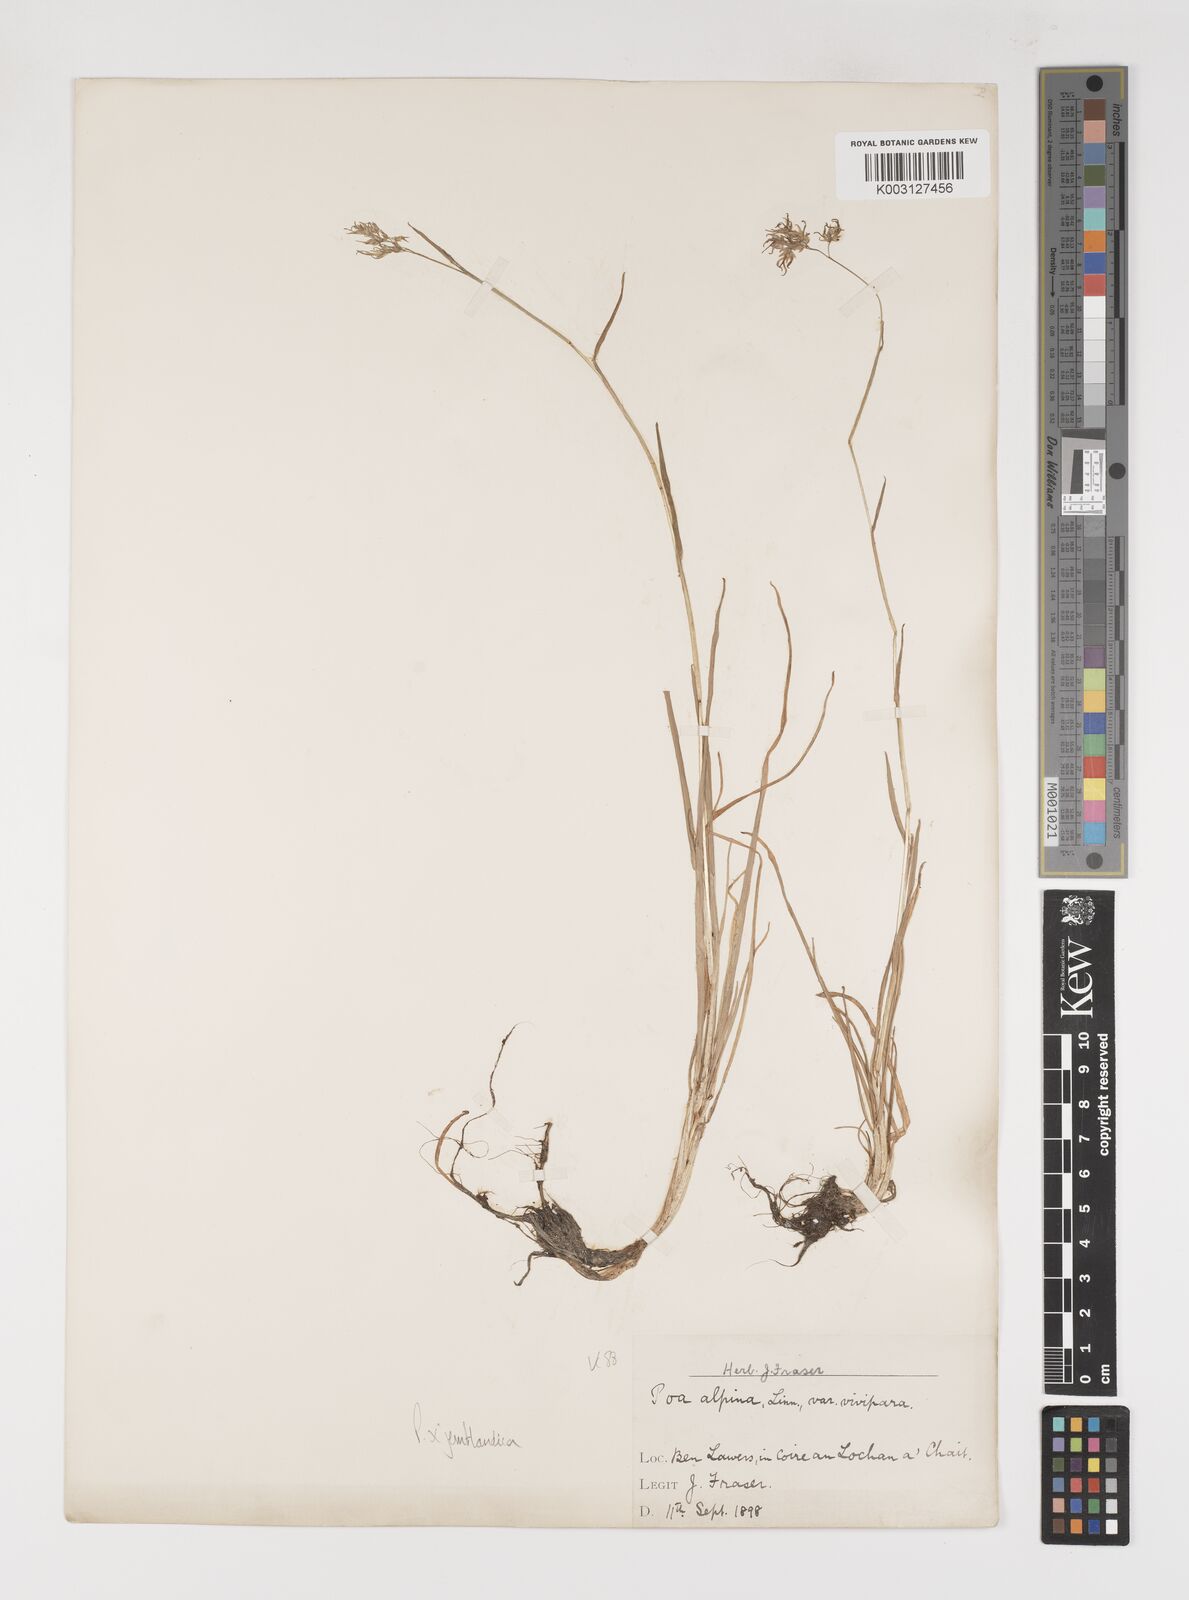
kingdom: Plantae
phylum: Tracheophyta
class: Liliopsida
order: Poales
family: Poaceae
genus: Poa
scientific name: Poa jemtlandica
